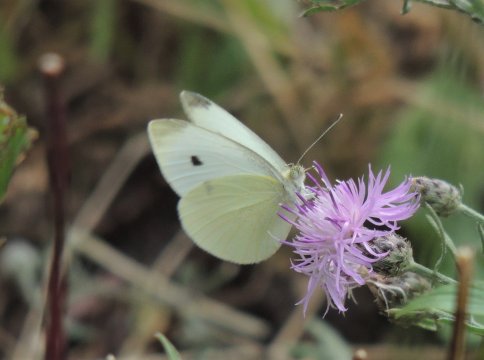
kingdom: Animalia
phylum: Arthropoda
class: Insecta
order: Lepidoptera
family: Pieridae
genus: Pieris
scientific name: Pieris rapae
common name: Cabbage White
